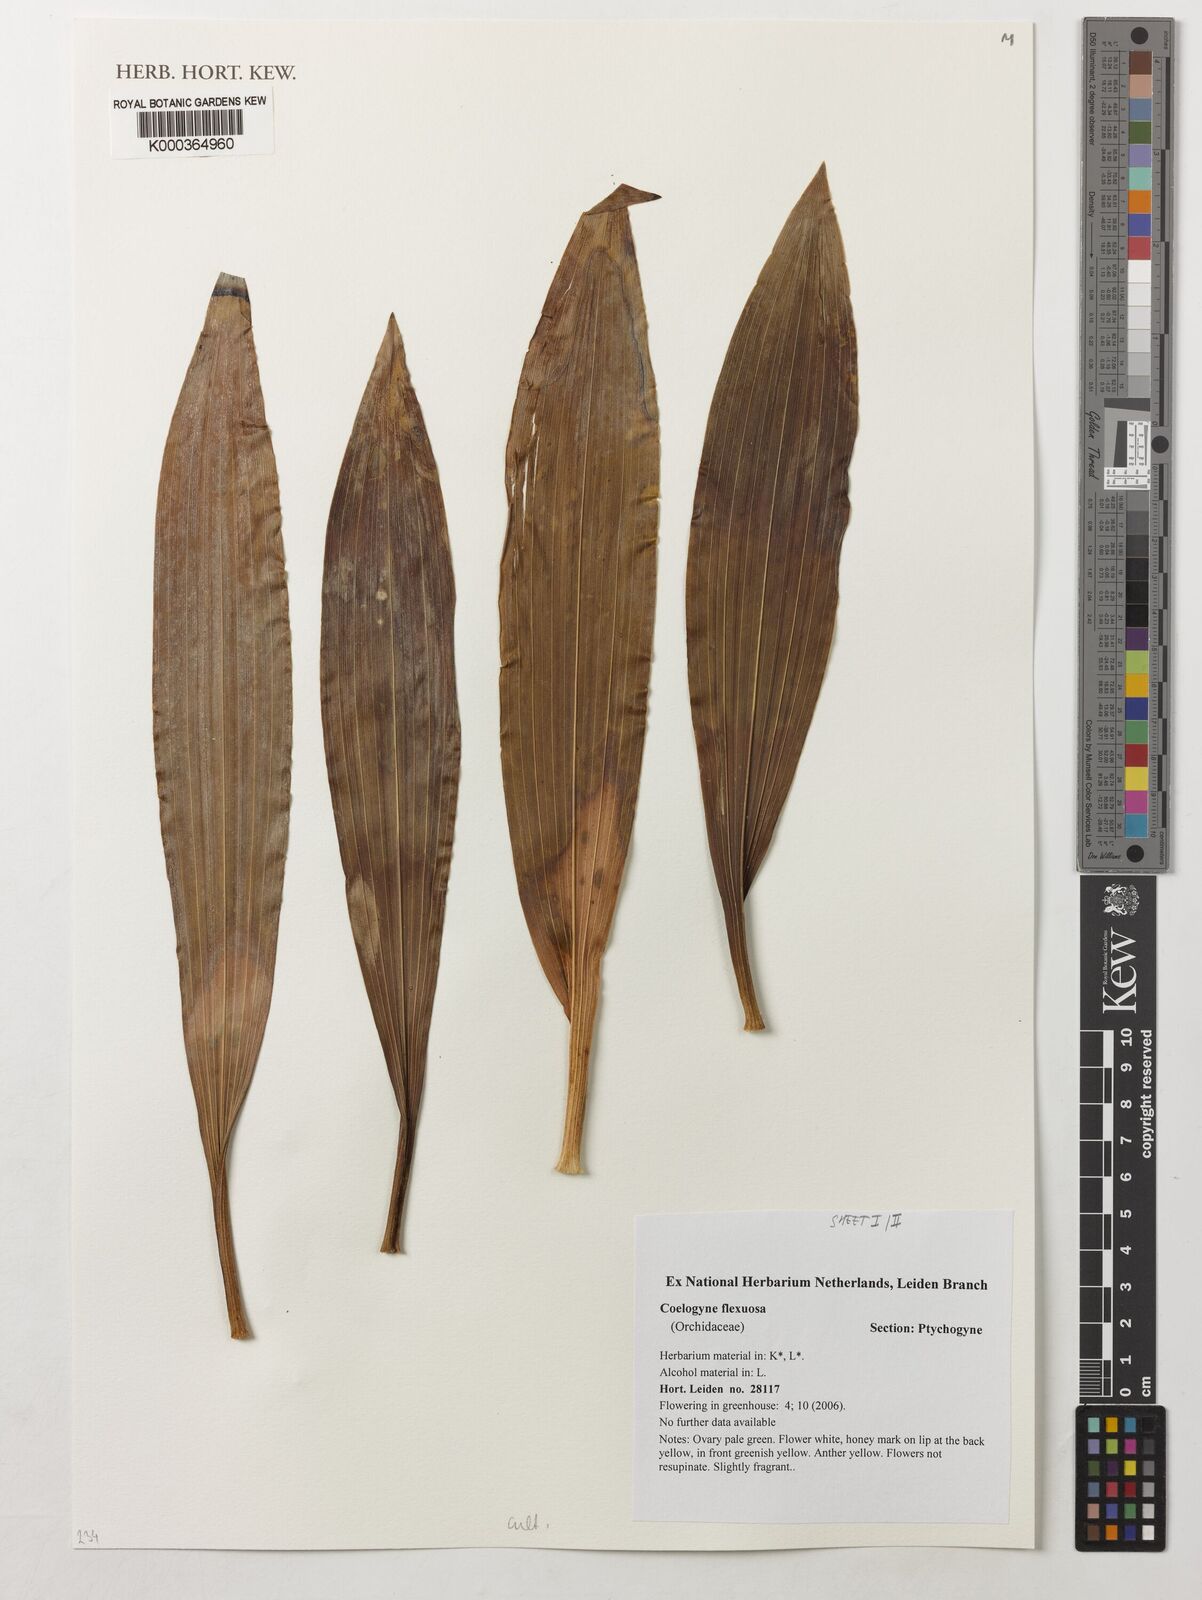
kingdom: Plantae
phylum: Tracheophyta
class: Liliopsida
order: Asparagales
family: Orchidaceae
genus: Coelogyne
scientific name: Coelogyne flexuosa
